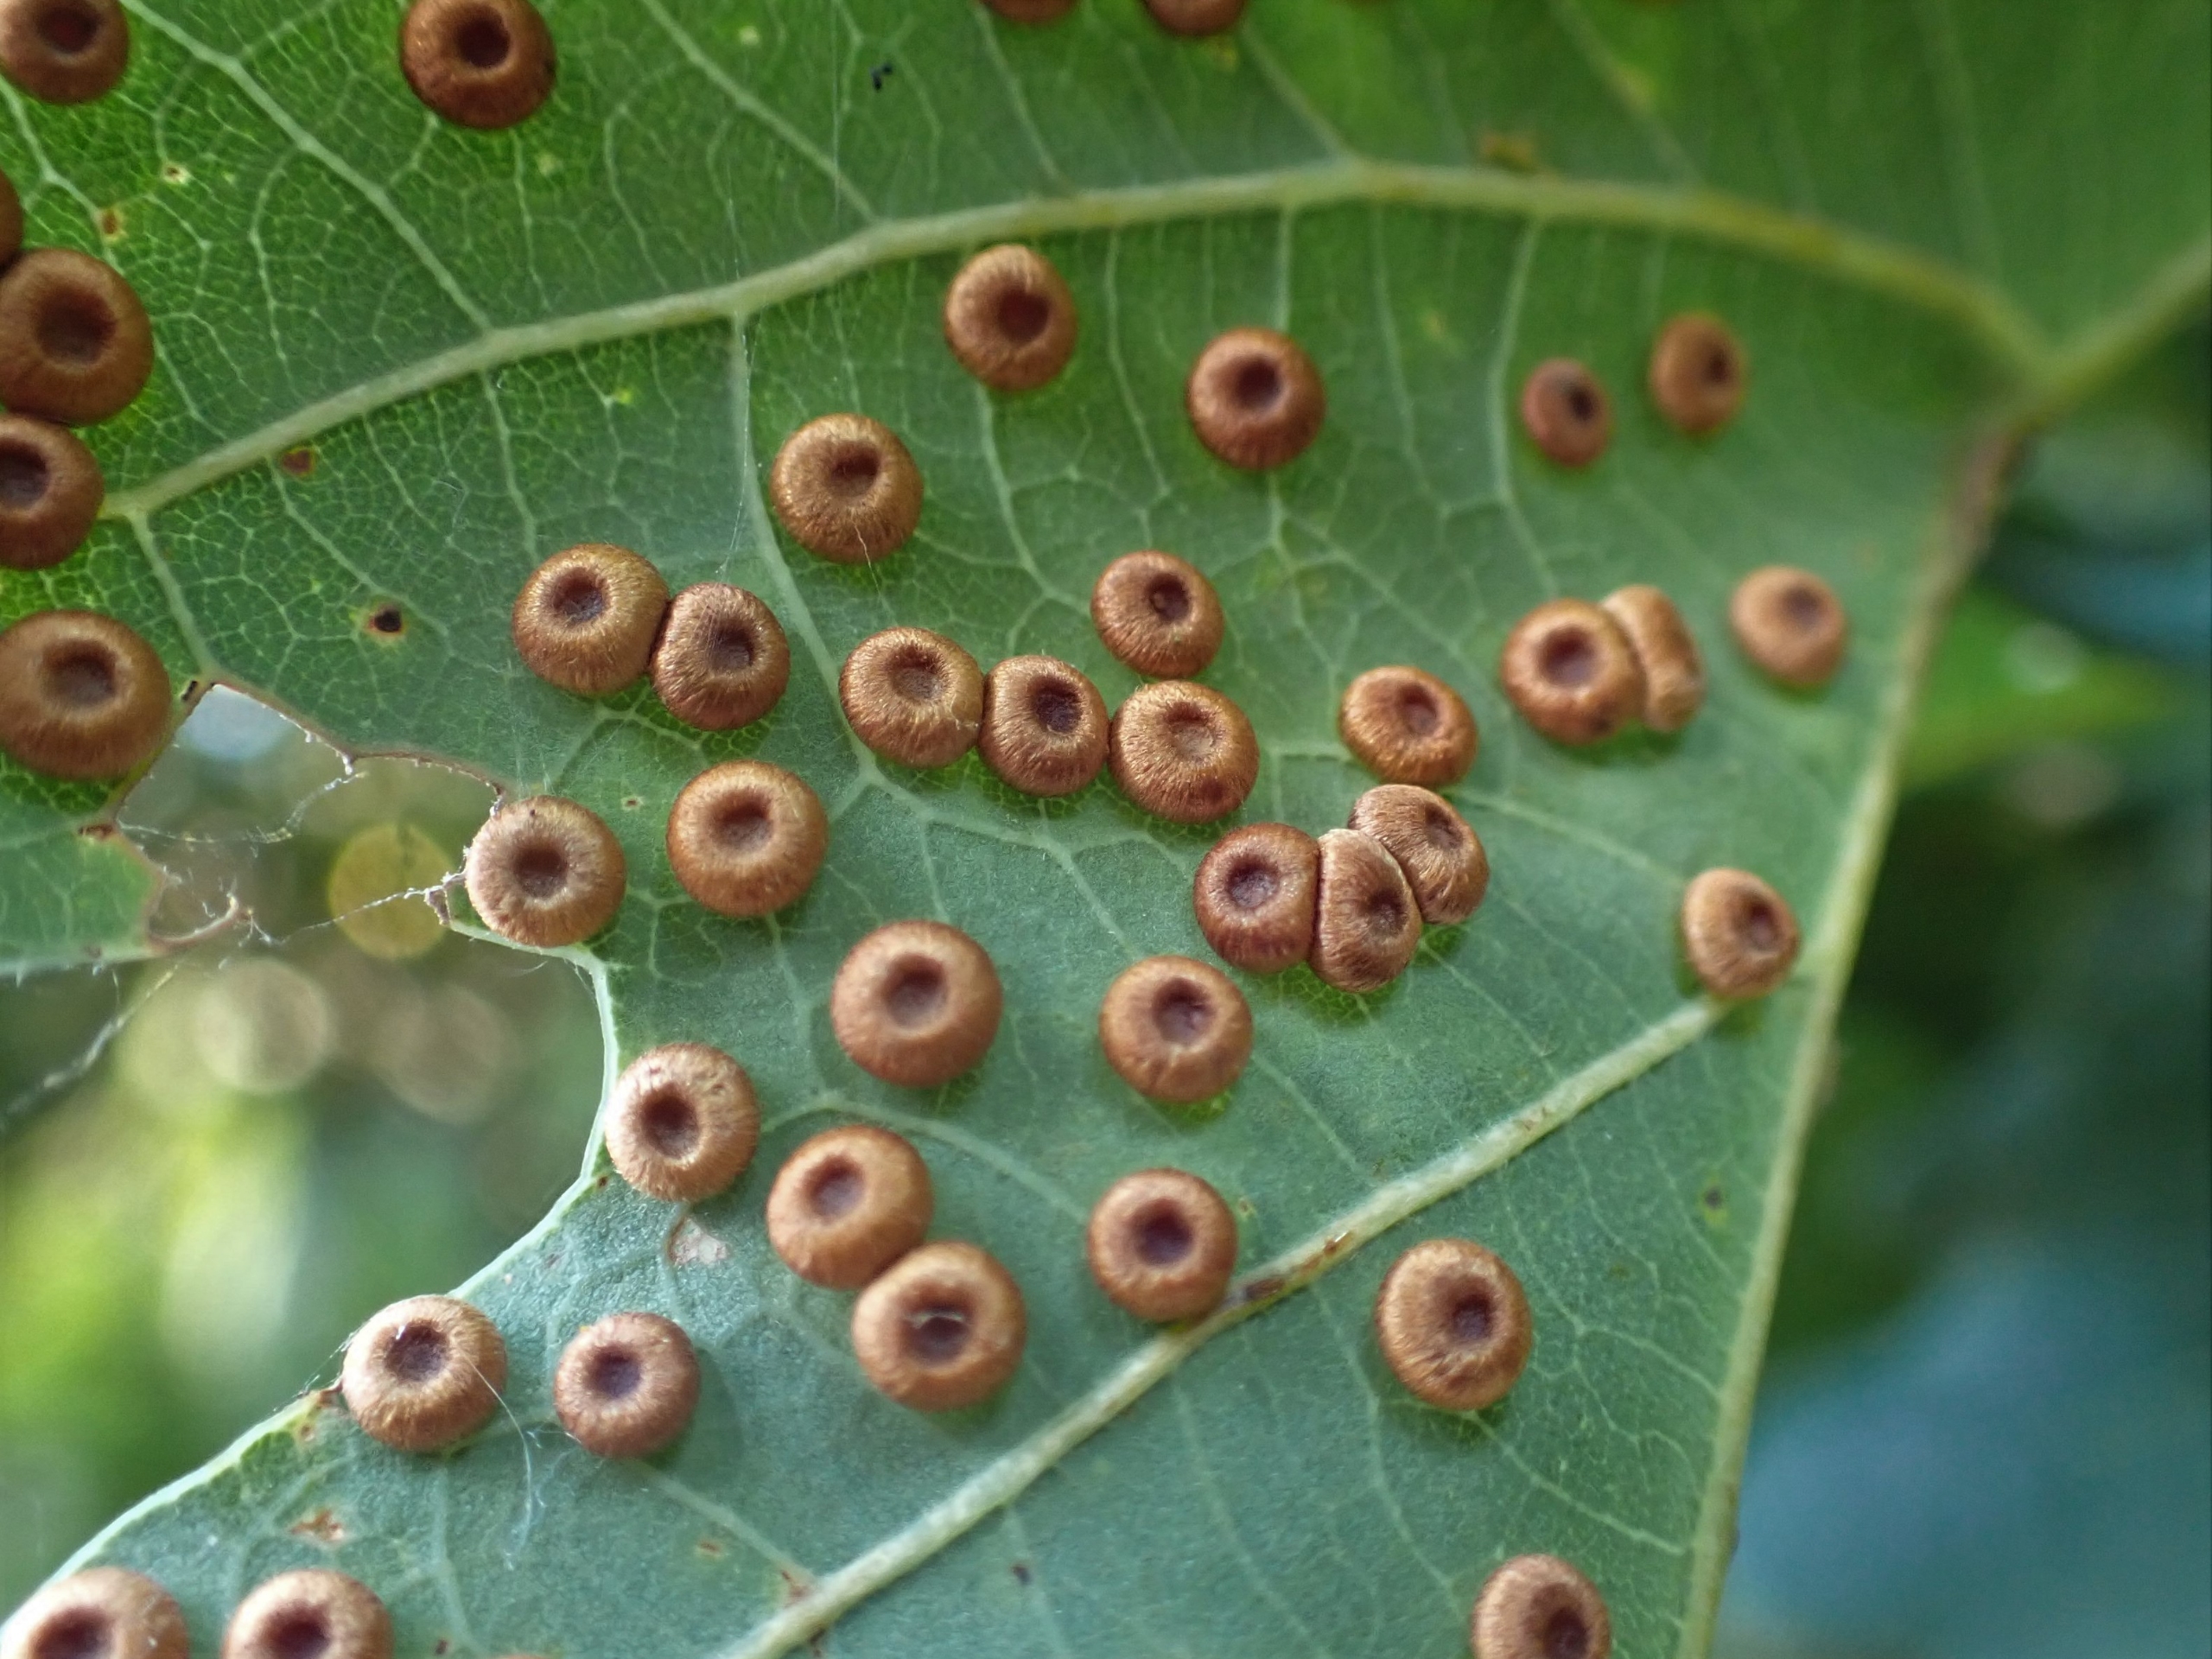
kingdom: Animalia
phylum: Arthropoda
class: Insecta
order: Hymenoptera
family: Cynipidae
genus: Neuroterus
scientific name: Neuroterus numismalis
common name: Knapgalhveps
